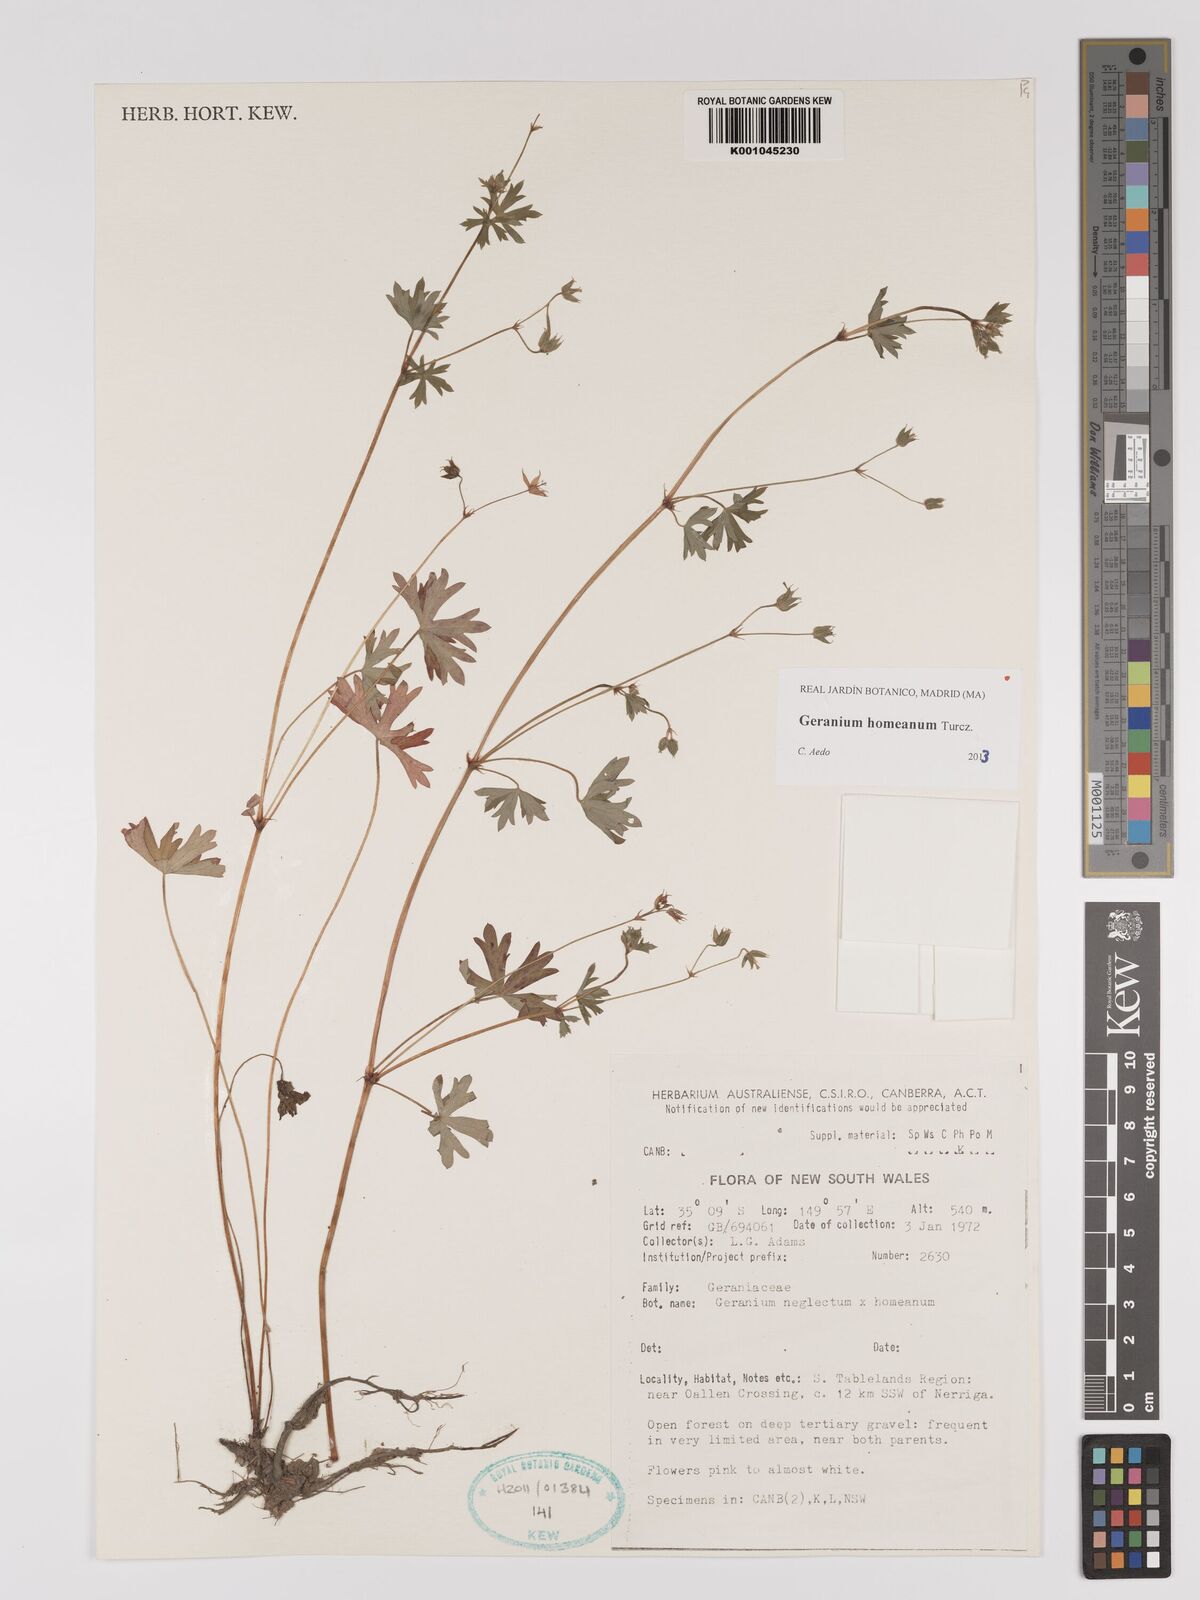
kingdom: Plantae
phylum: Tracheophyta
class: Magnoliopsida
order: Geraniales
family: Geraniaceae
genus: Geranium
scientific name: Geranium homeanum
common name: Australasian geranium
